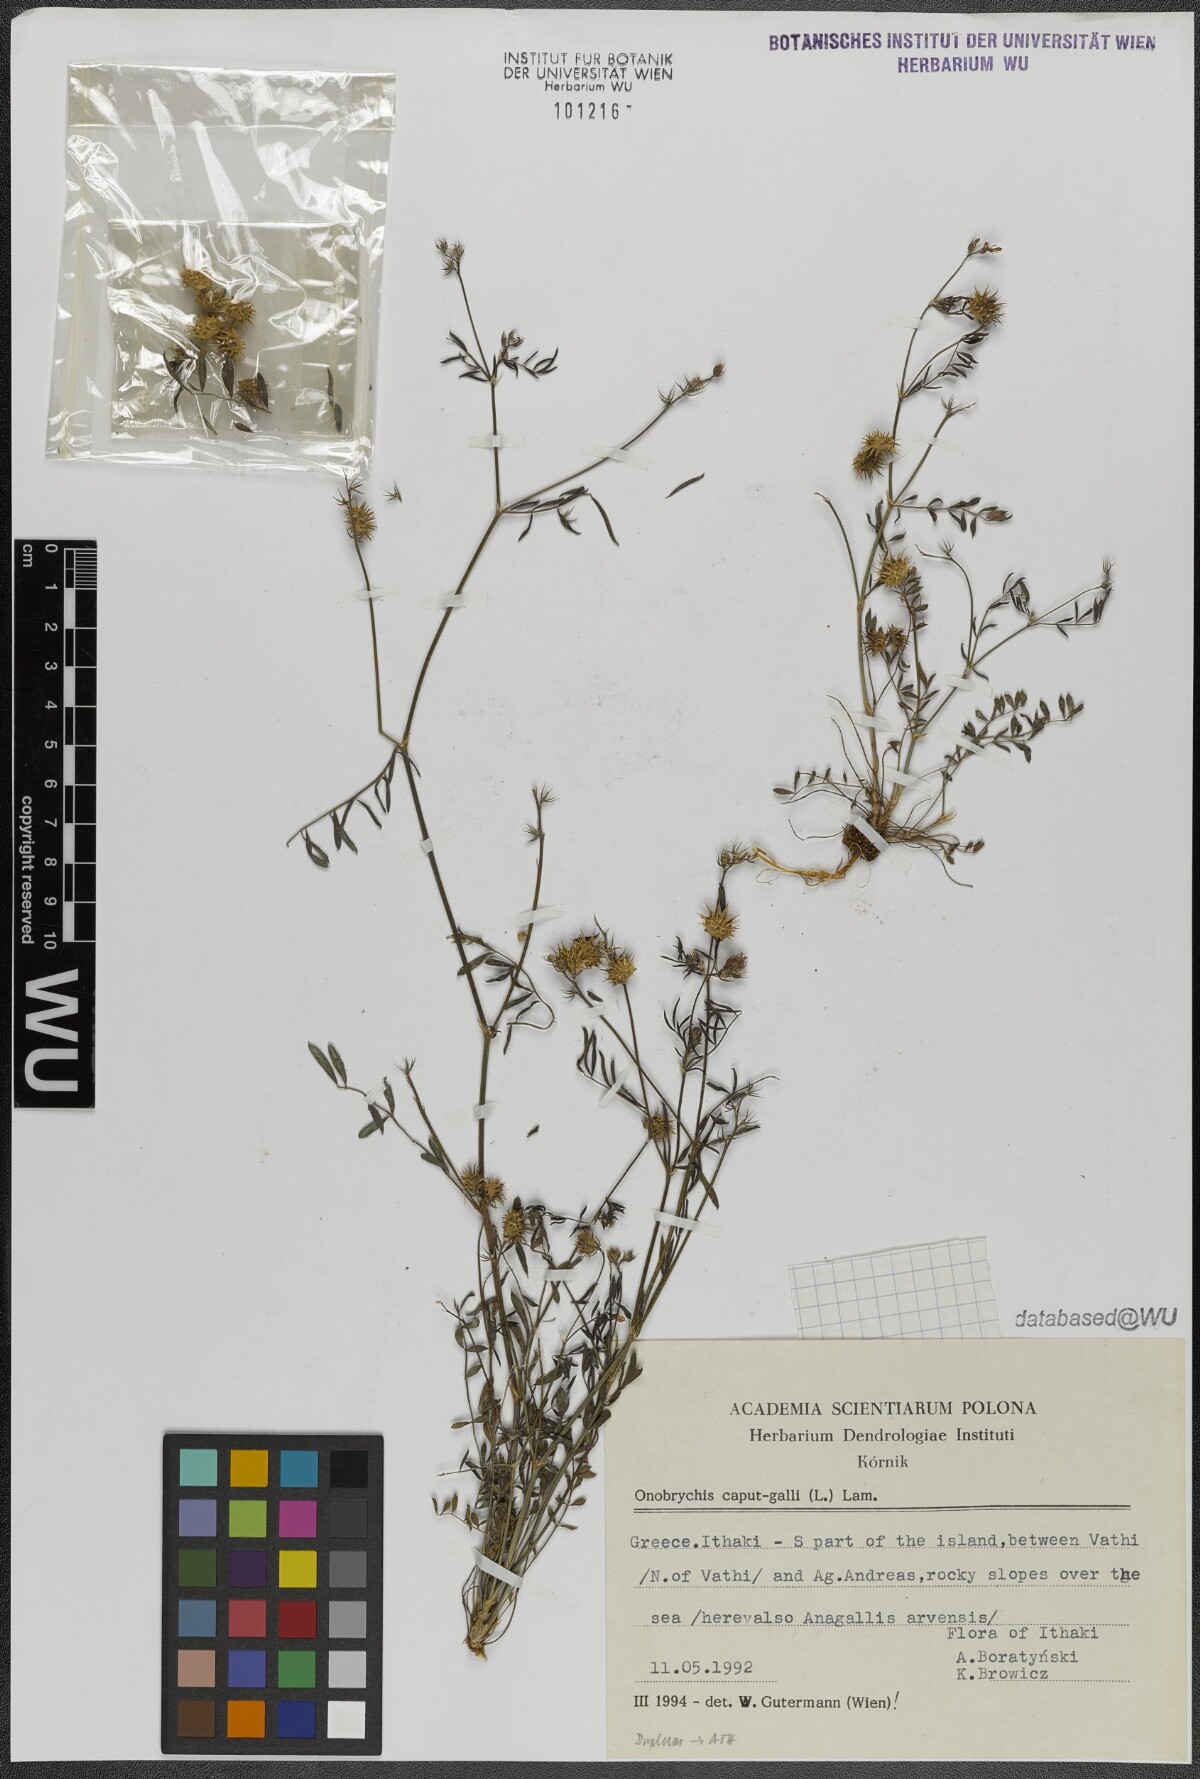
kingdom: Plantae
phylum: Tracheophyta
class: Magnoliopsida
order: Fabales
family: Fabaceae
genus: Onobrychis
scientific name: Onobrychis caput-galli
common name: Cockscomb sainfoin
